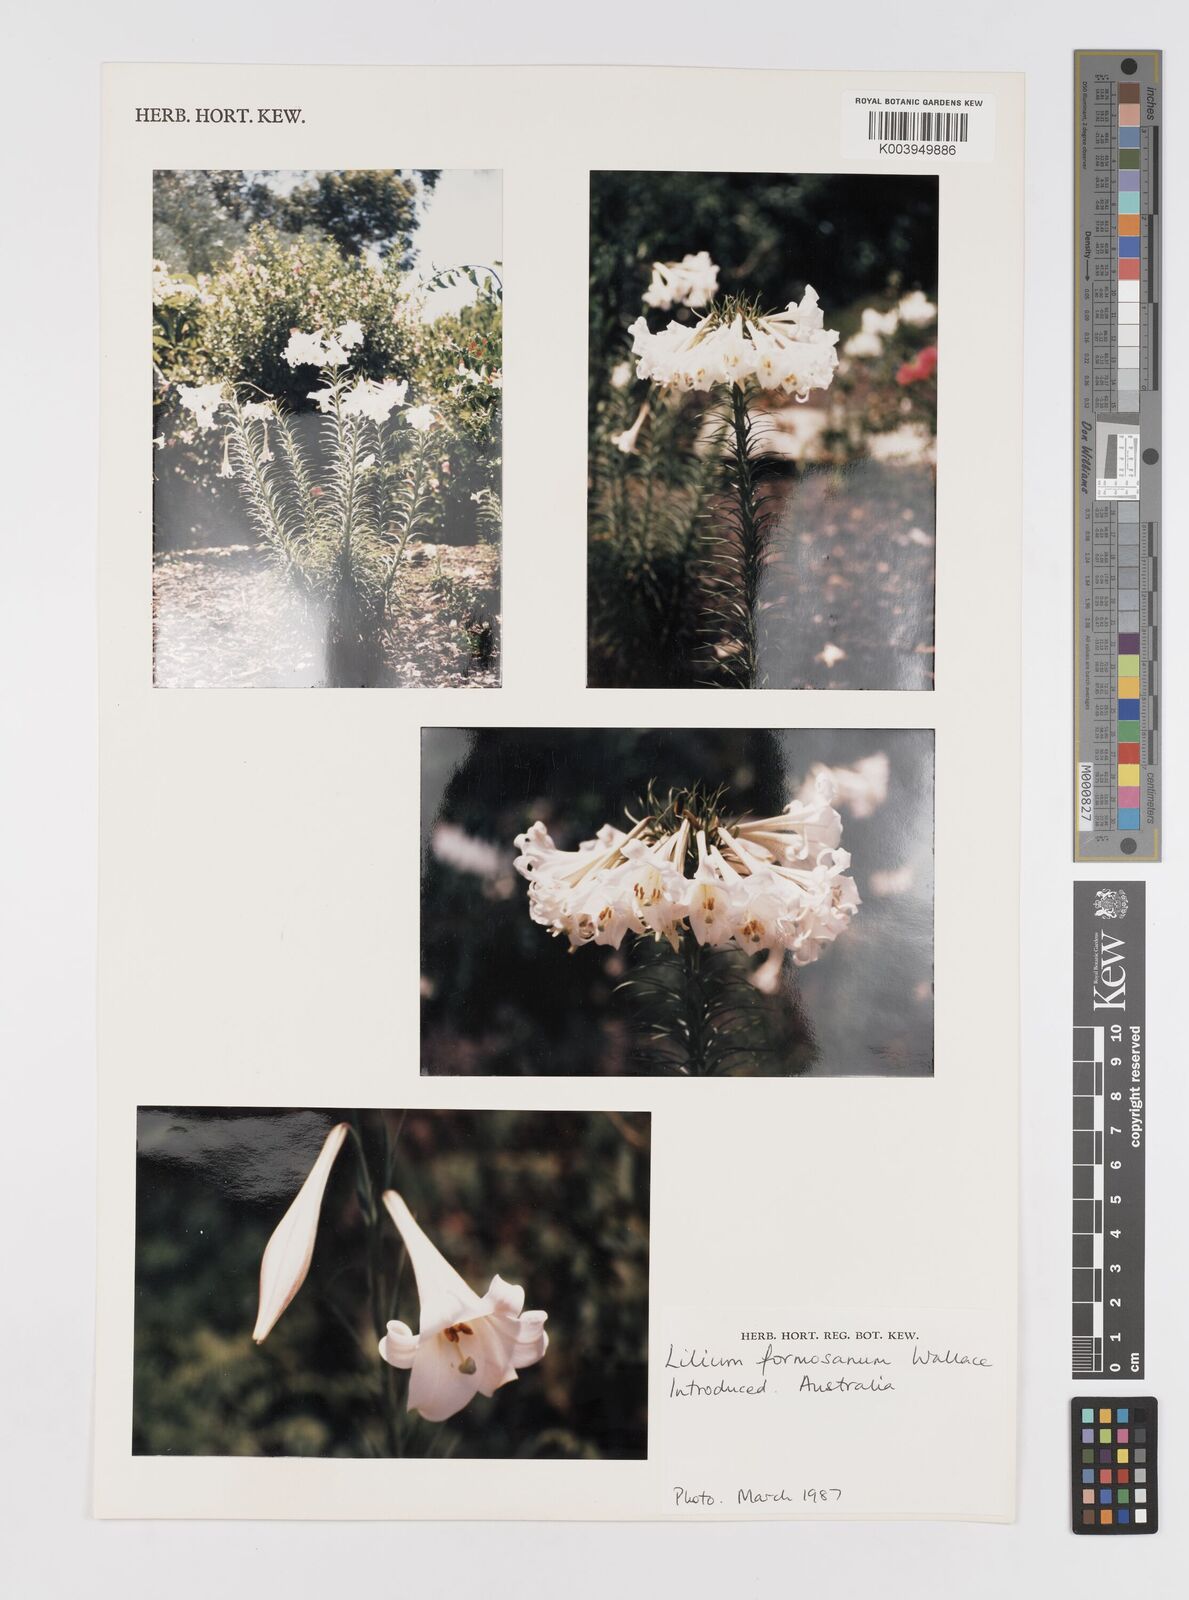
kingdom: Plantae
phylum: Tracheophyta
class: Liliopsida
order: Liliales
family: Liliaceae
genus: Lilium
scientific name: Lilium formosanum
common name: Formosa lily
